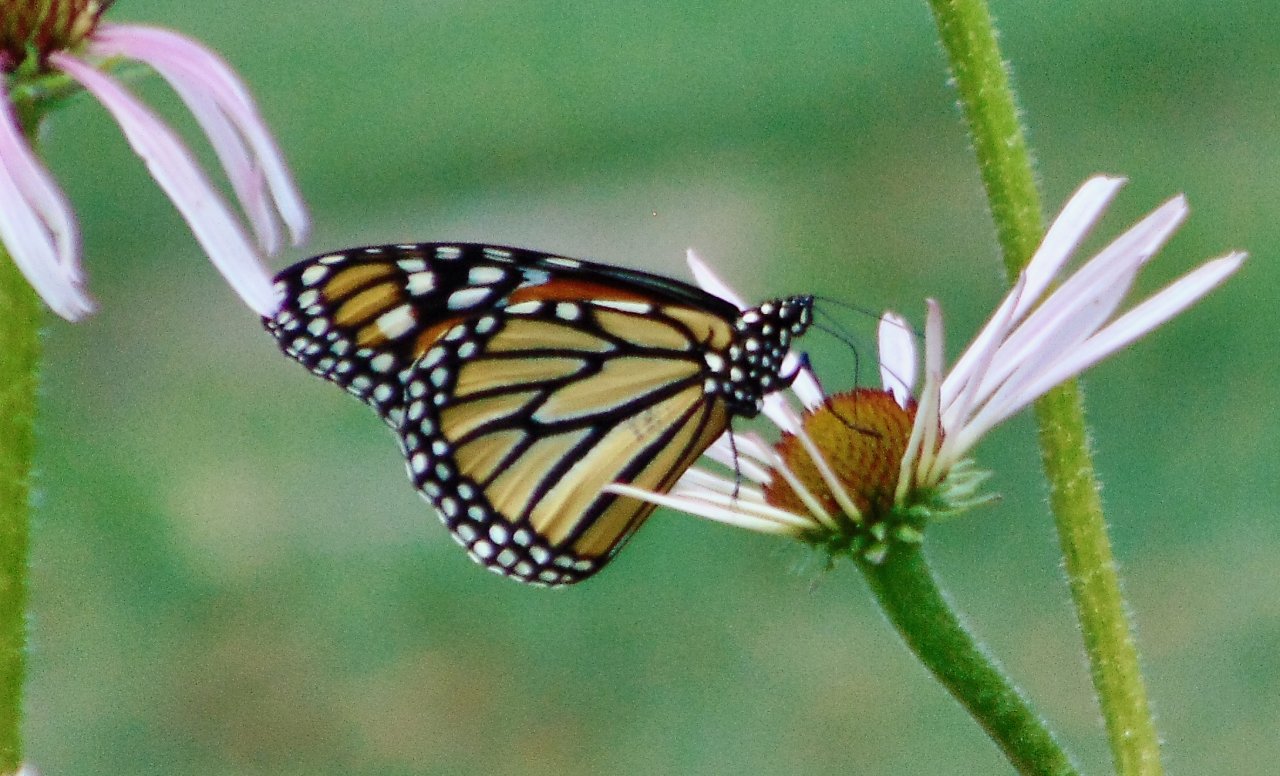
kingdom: Animalia
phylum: Arthropoda
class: Insecta
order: Lepidoptera
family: Nymphalidae
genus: Danaus
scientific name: Danaus plexippus
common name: Monarch
